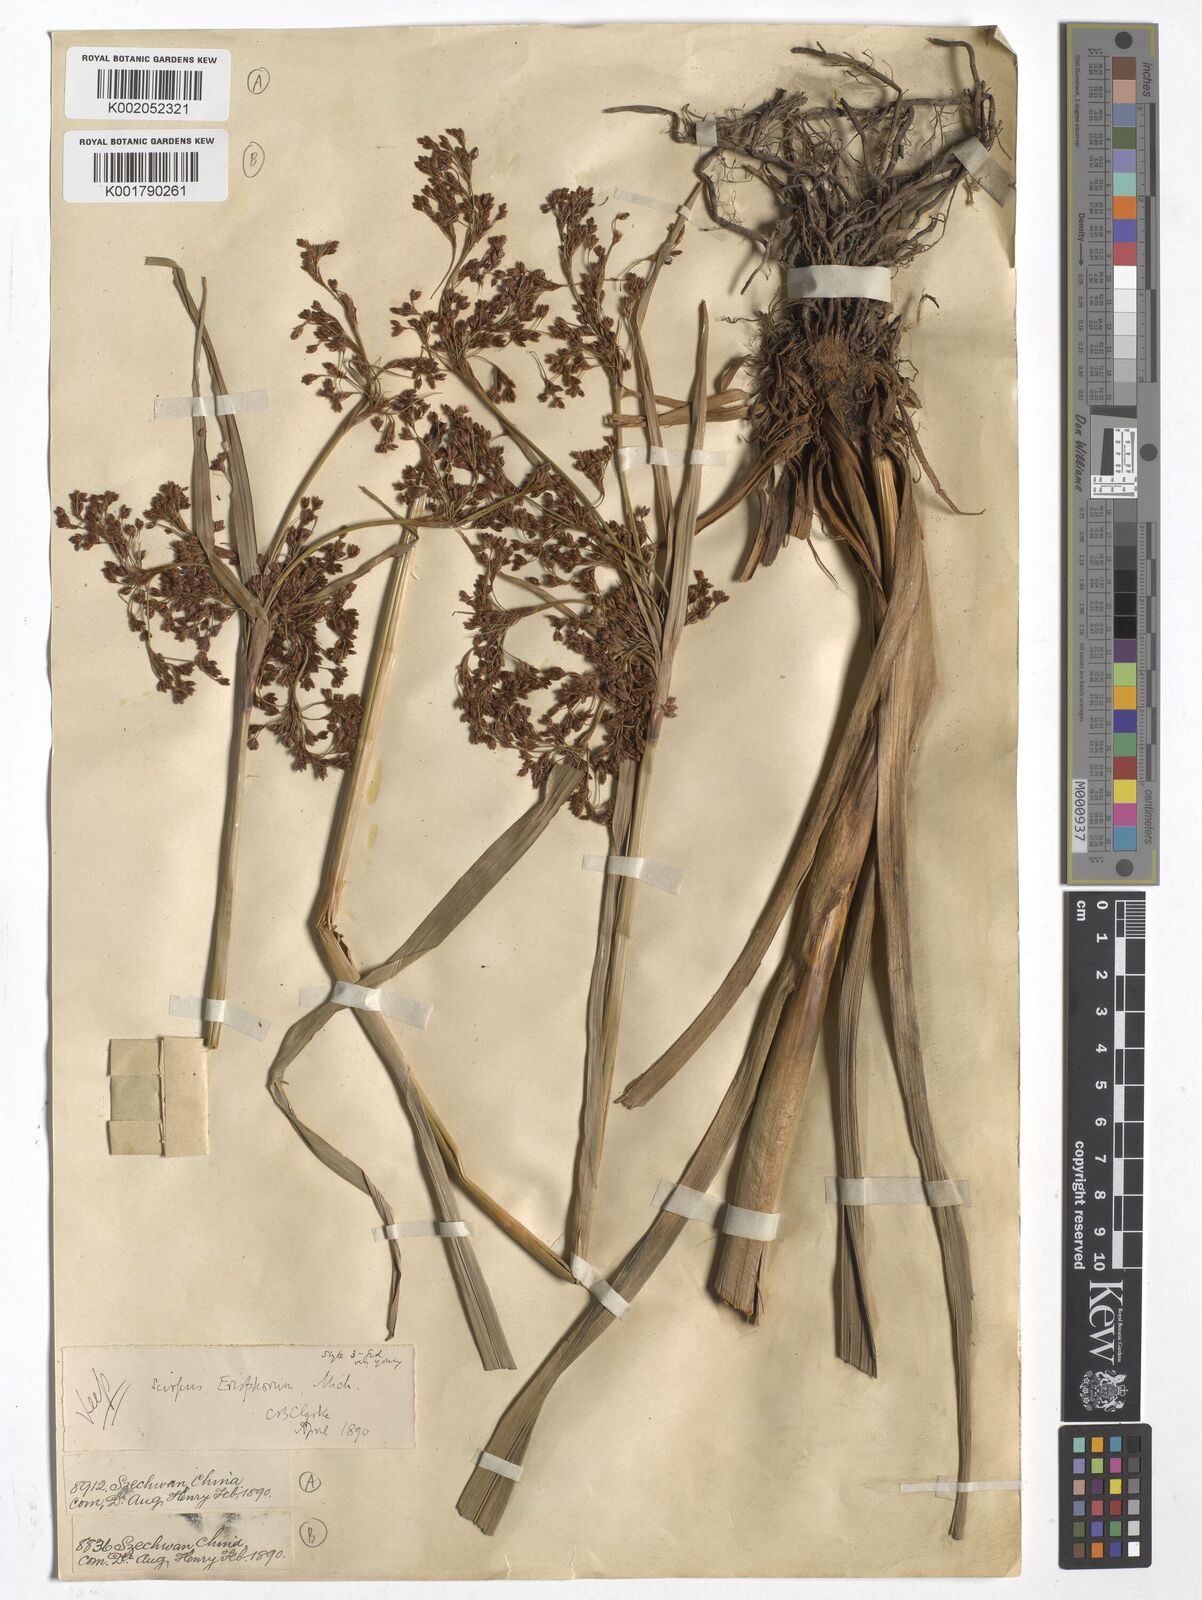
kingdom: Plantae
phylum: Tracheophyta
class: Liliopsida
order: Poales
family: Cyperaceae
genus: Scirpus
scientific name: Scirpus cyperinus
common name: Black-sheathed bulrush
